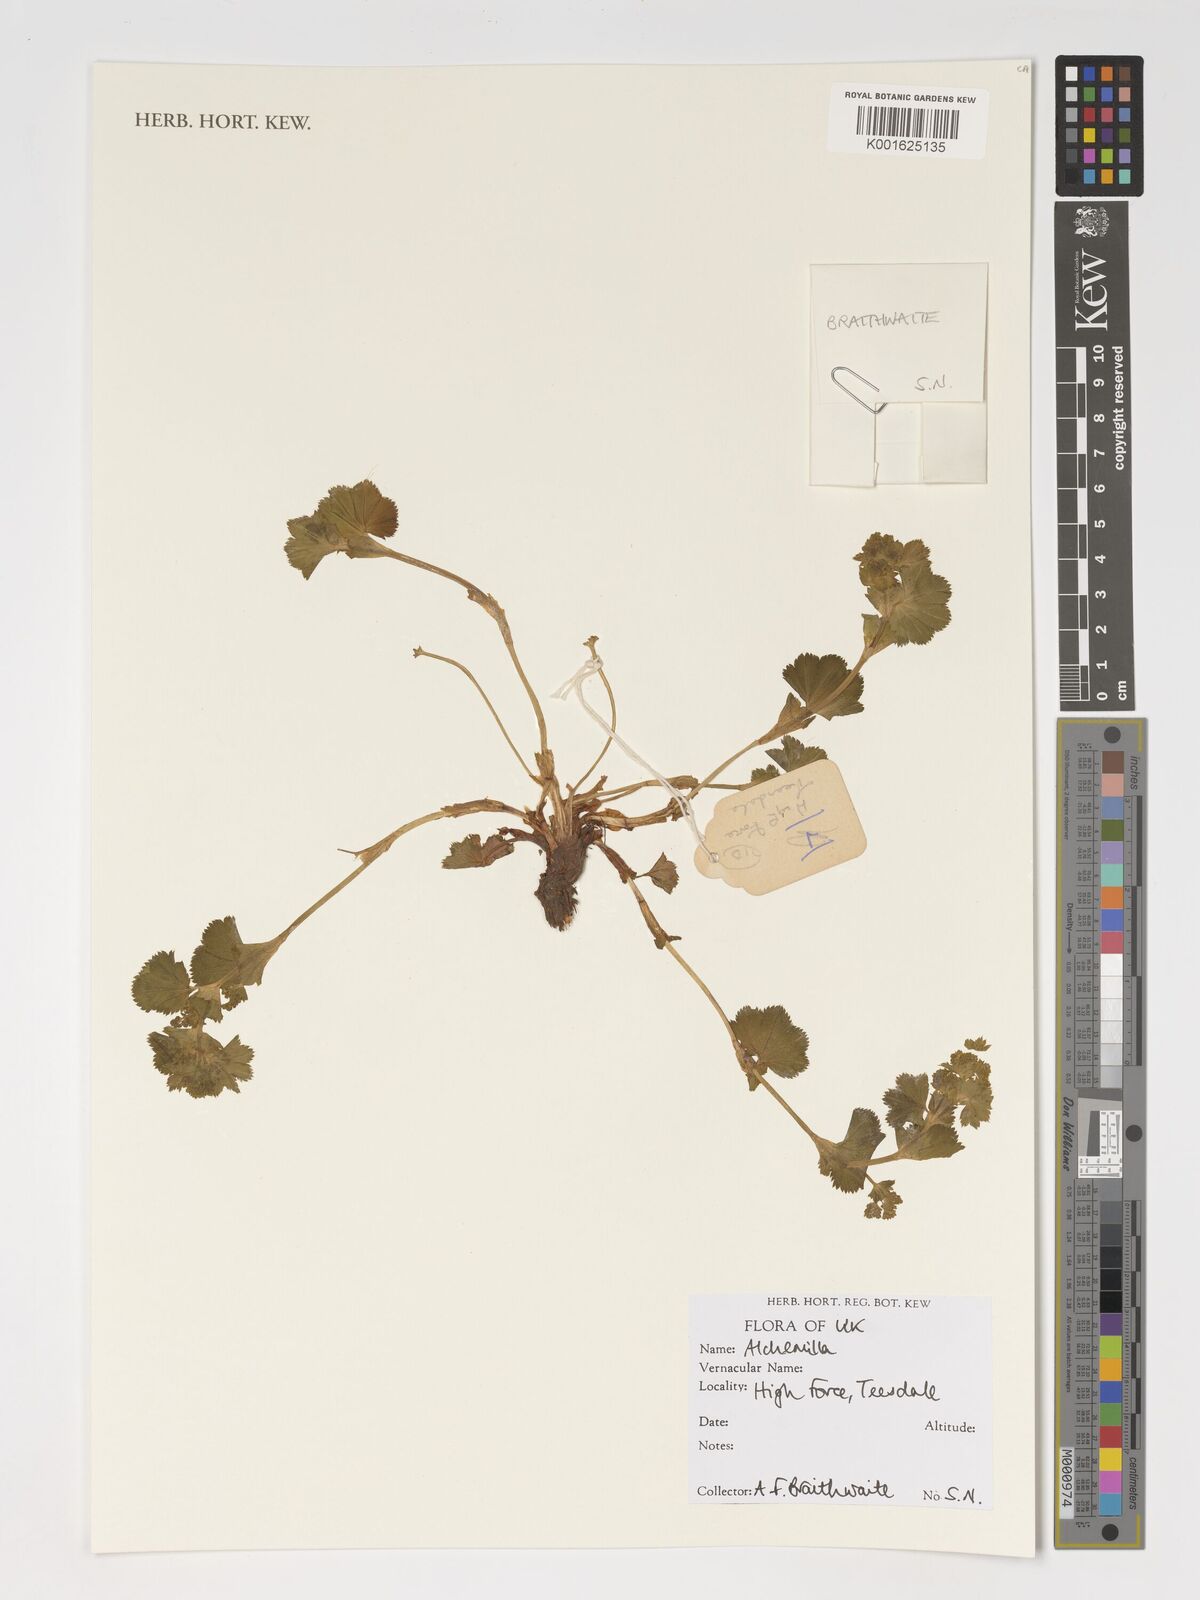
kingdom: Plantae
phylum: Tracheophyta
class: Magnoliopsida
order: Rosales
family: Rosaceae
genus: Alchemilla
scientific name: Alchemilla
